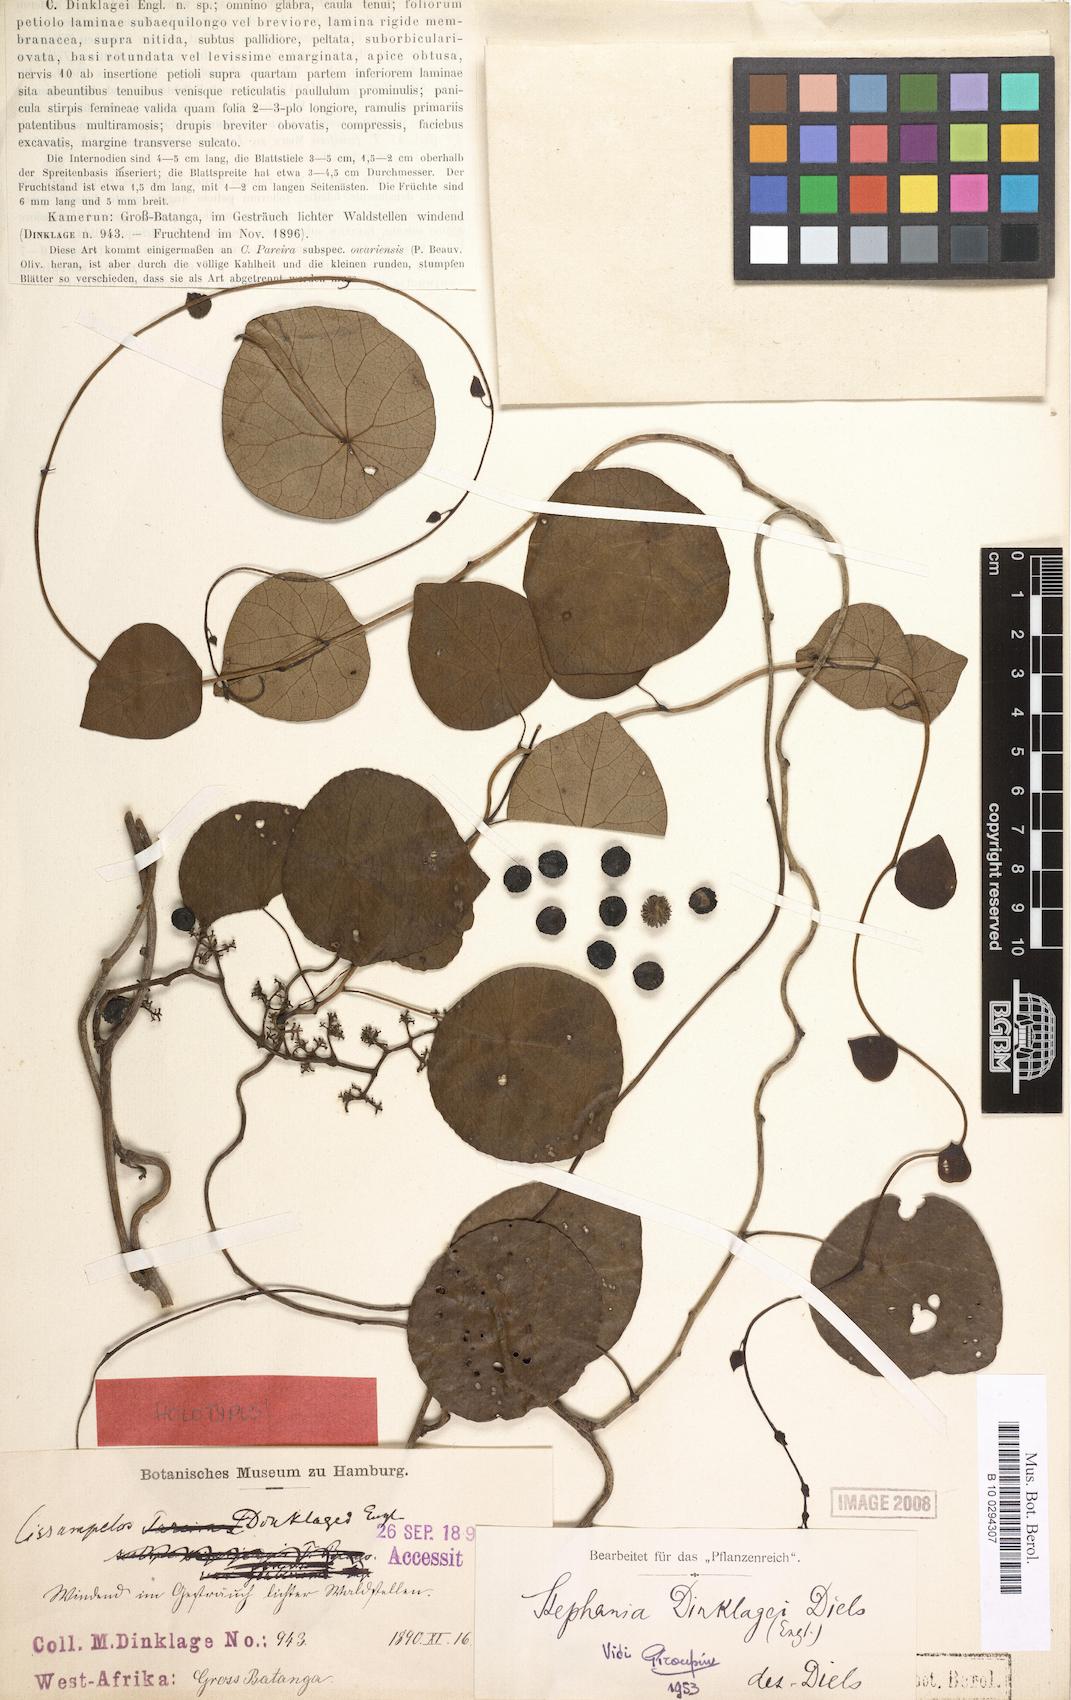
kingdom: Plantae
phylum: Tracheophyta
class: Magnoliopsida
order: Ranunculales
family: Menispermaceae
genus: Stephania
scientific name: Stephania dinklagei
